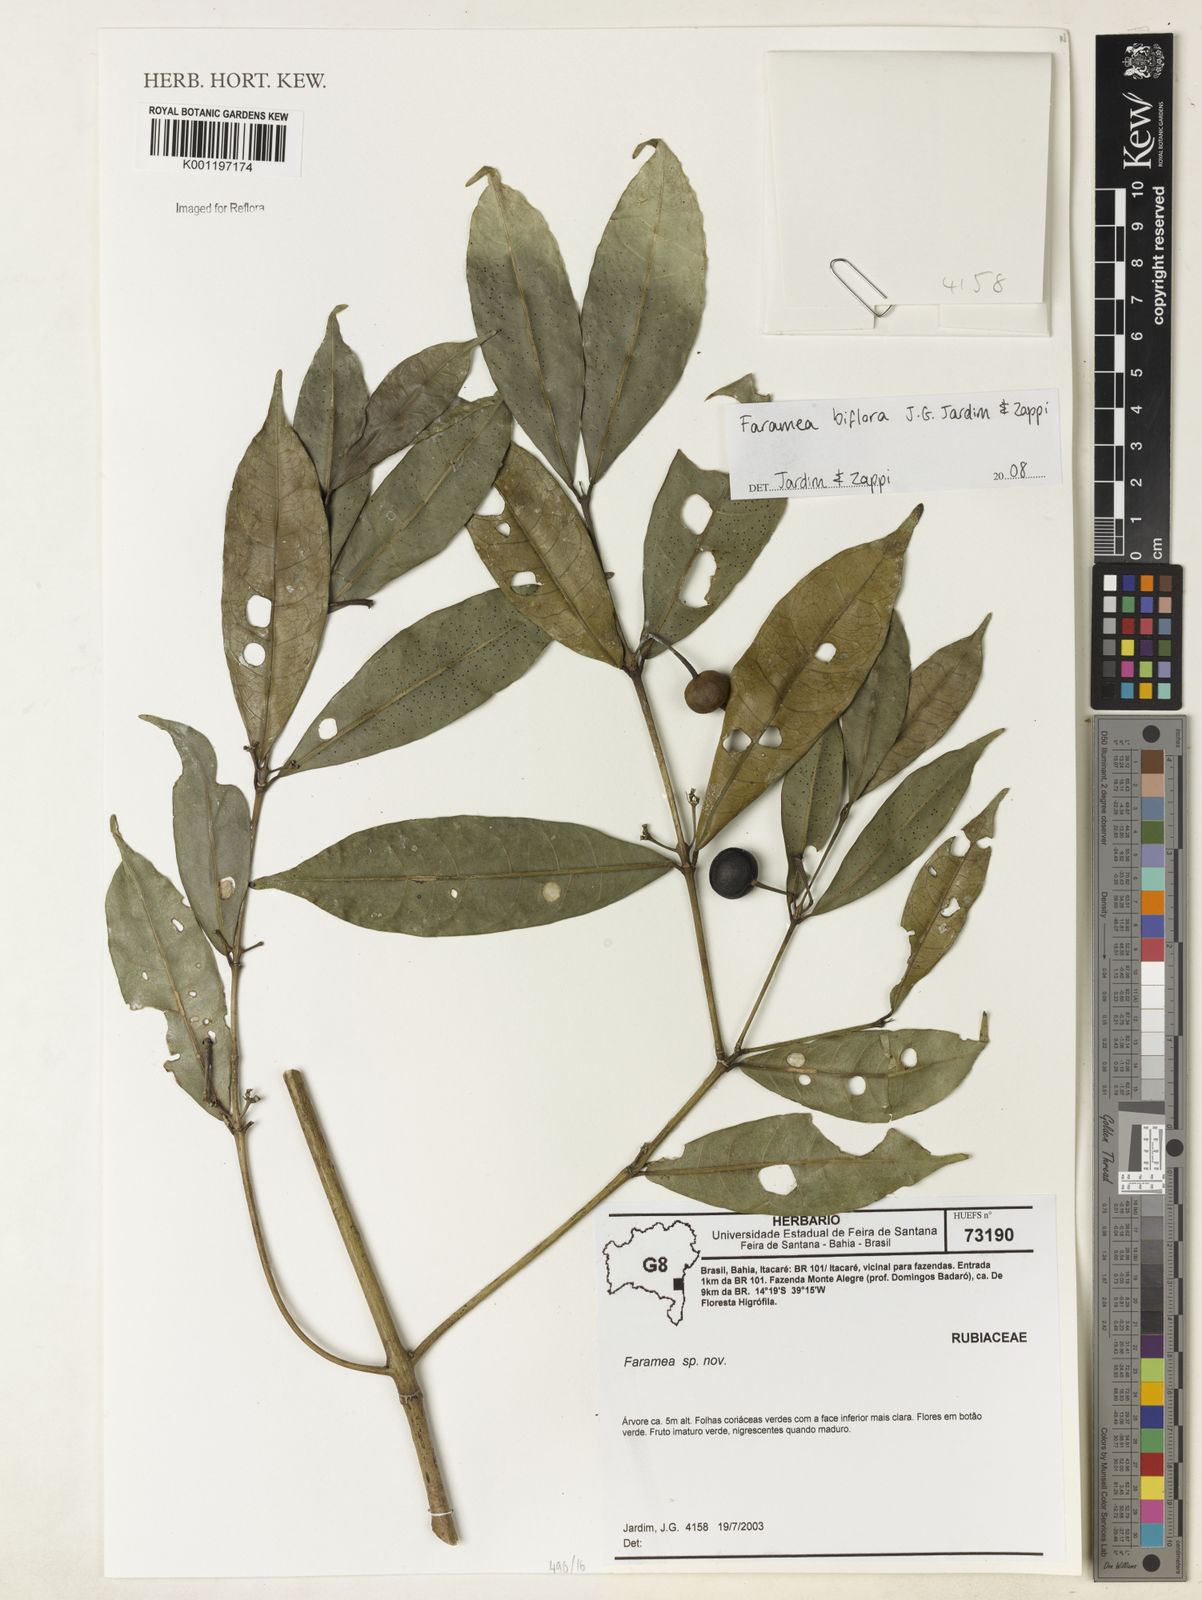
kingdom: Plantae
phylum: Tracheophyta
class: Magnoliopsida
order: Gentianales
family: Rubiaceae
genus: Faramea
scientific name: Faramea biflora
